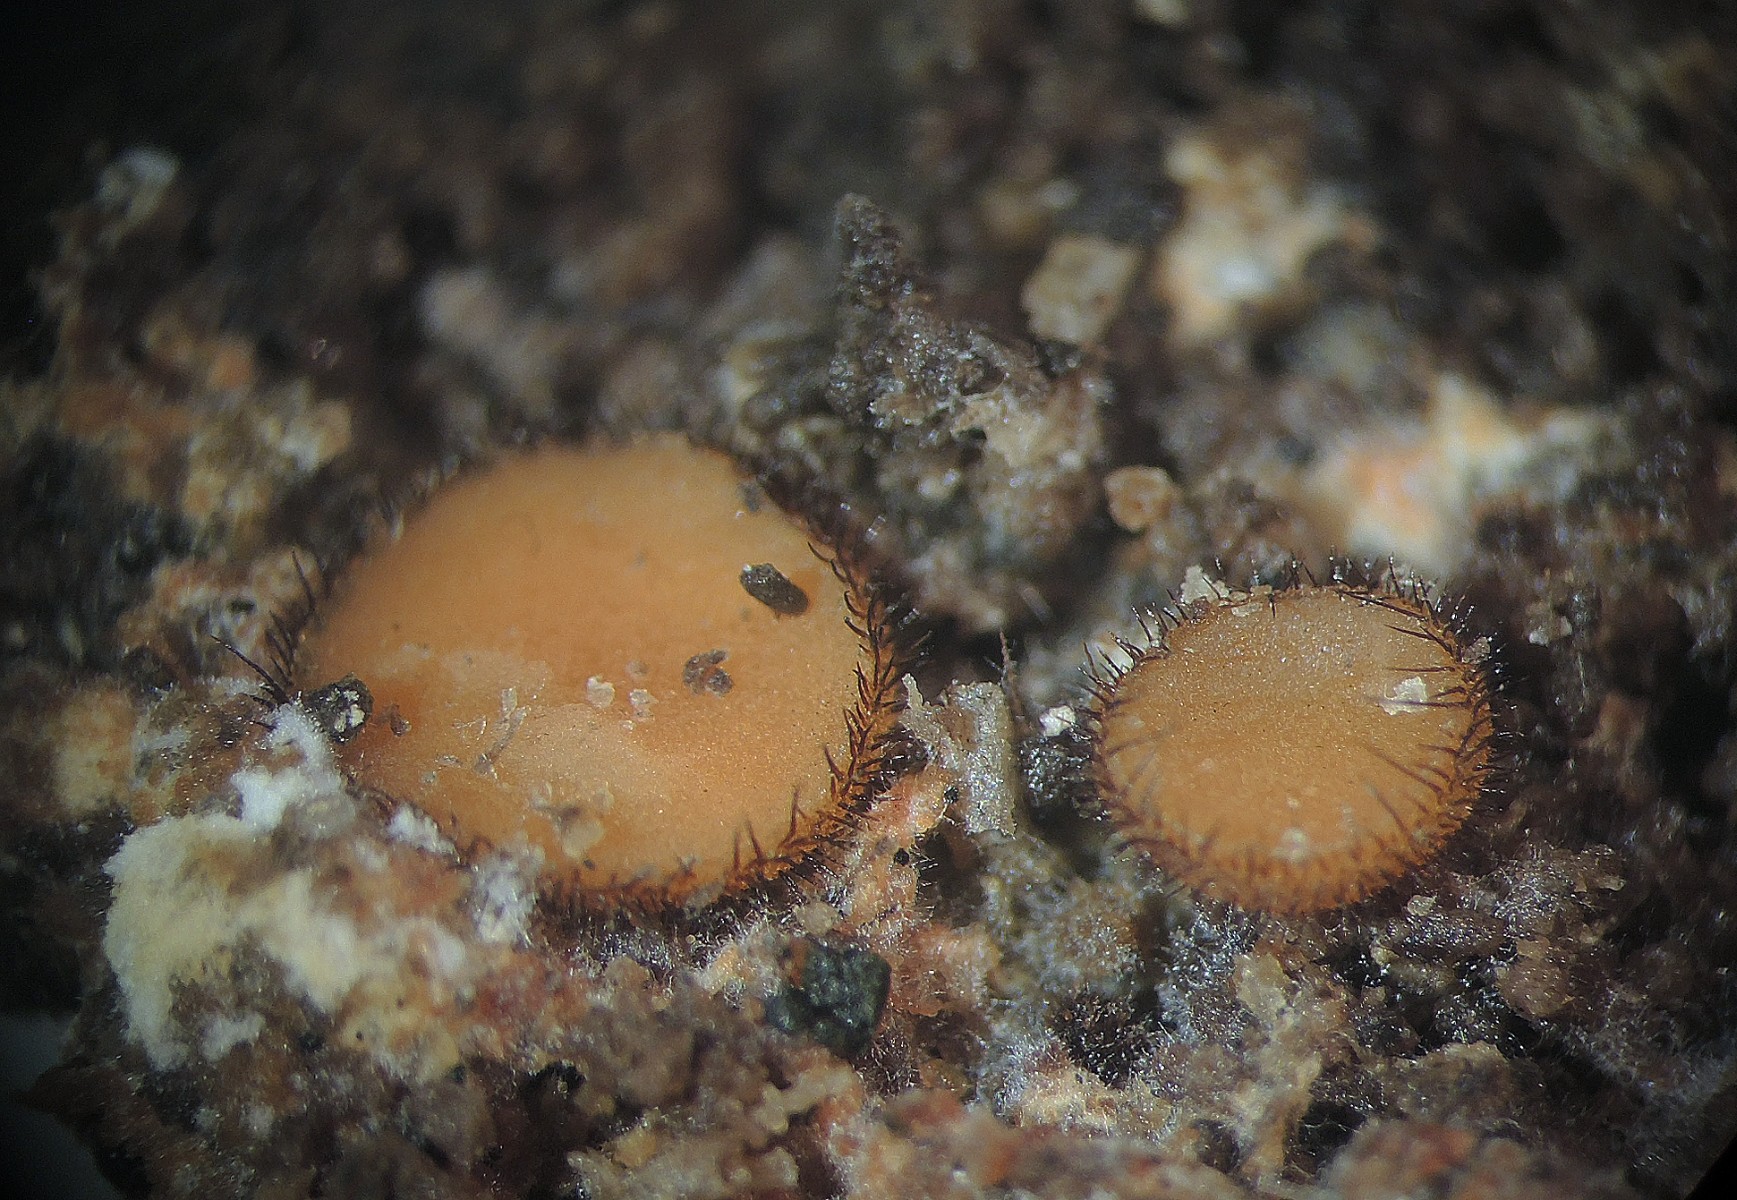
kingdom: Fungi
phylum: Ascomycota
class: Pezizomycetes
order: Pezizales
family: Pyronemataceae
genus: Scutellinia
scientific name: Scutellinia setosa
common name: pindsvine-skjoldbæger
